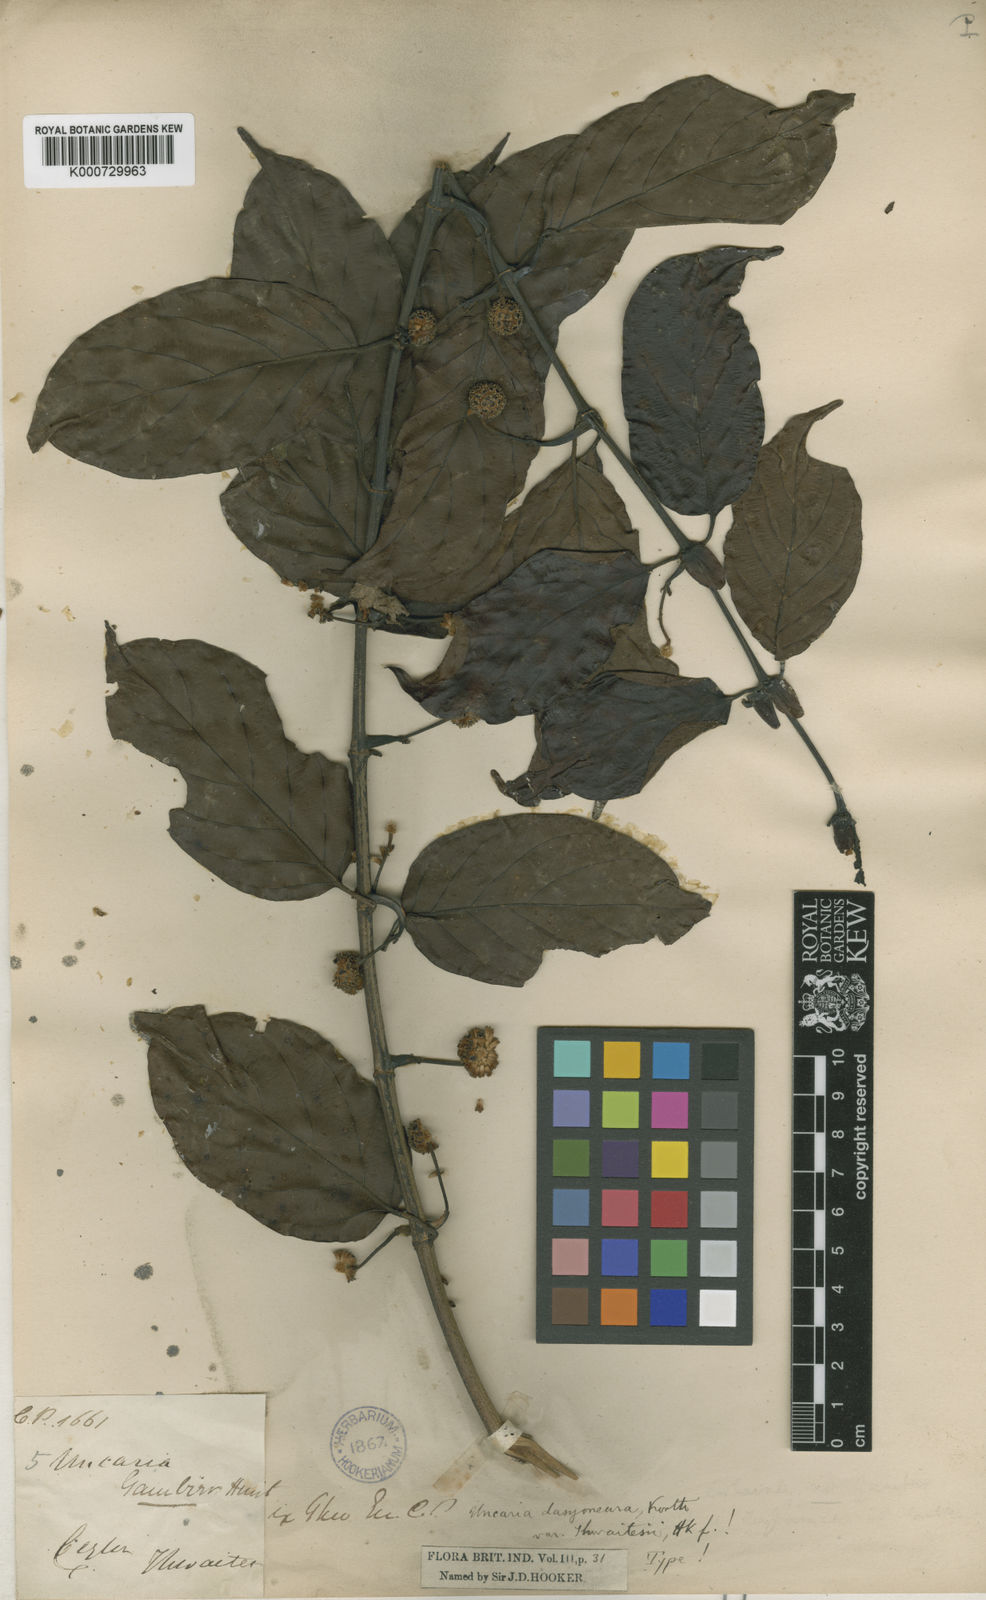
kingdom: Plantae
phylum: Tracheophyta
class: Magnoliopsida
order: Gentianales
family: Rubiaceae
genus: Uncaria
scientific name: Uncaria elliptica
